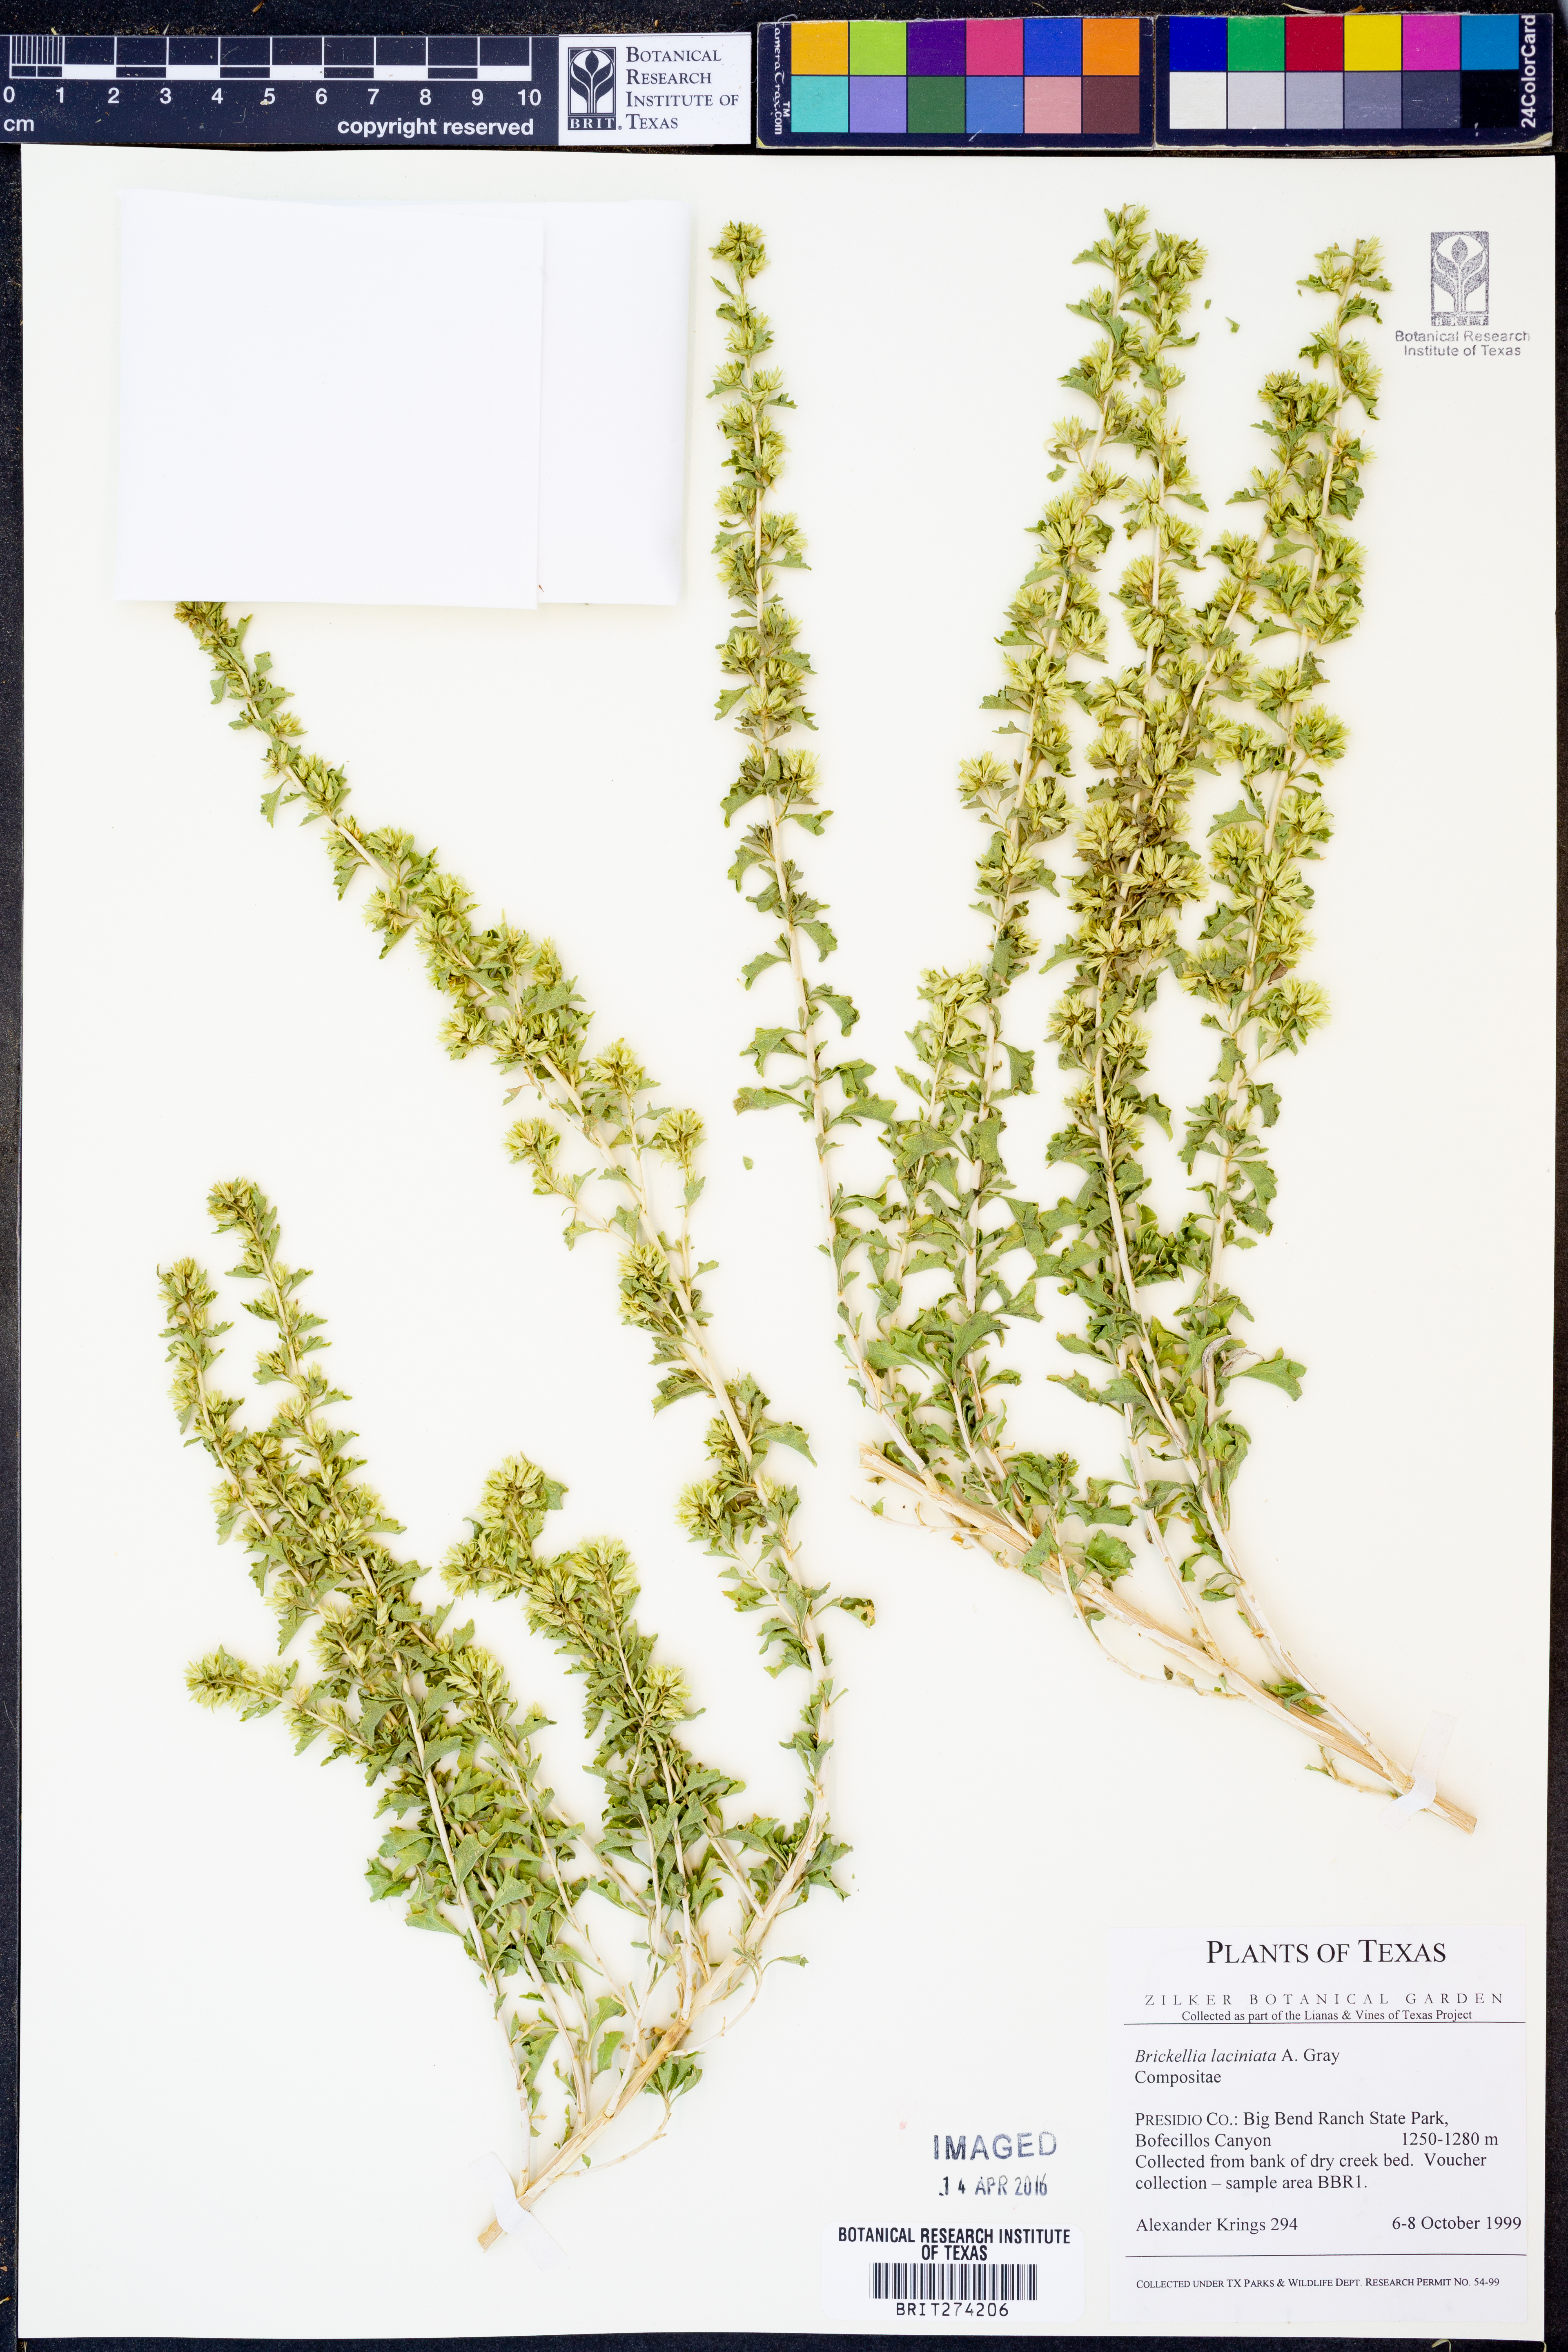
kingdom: Plantae
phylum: Tracheophyta
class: Magnoliopsida
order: Asterales
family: Asteraceae
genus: Brickellia
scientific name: Brickellia laciniata
